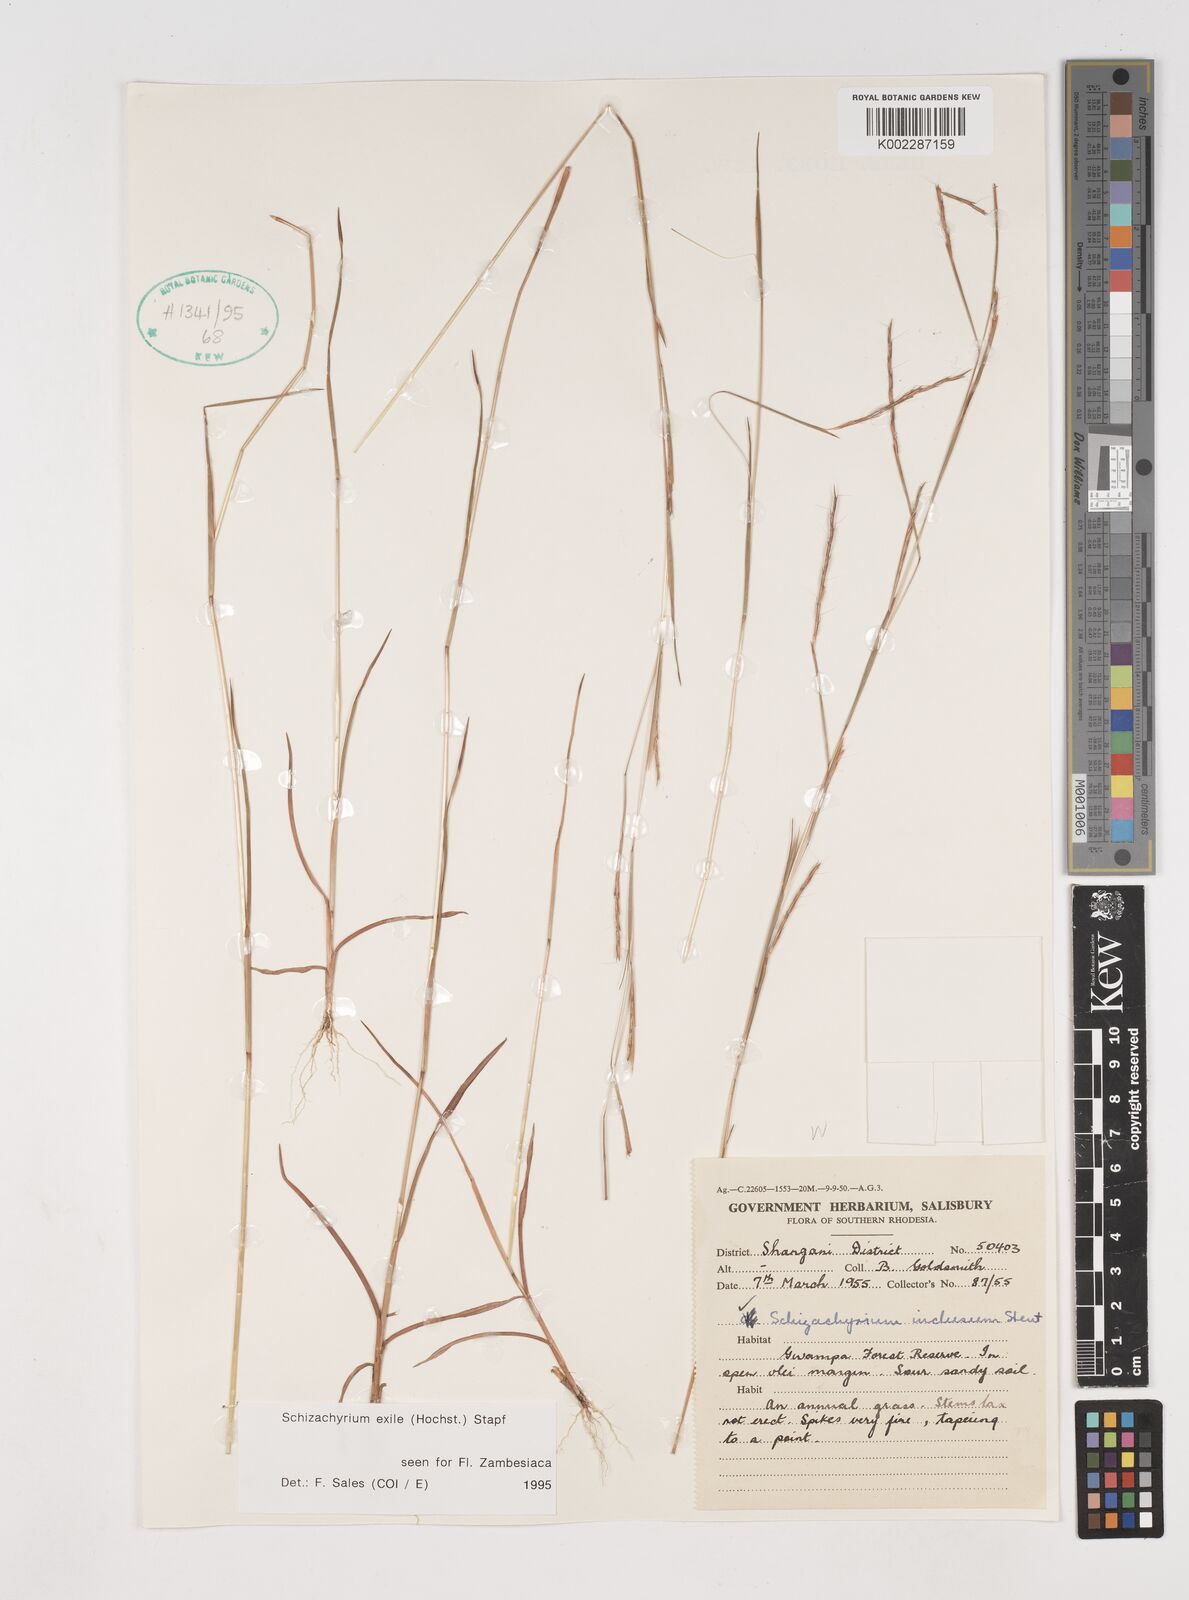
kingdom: Plantae
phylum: Tracheophyta
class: Liliopsida
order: Poales
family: Poaceae
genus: Schizachyrium
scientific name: Schizachyrium exile
